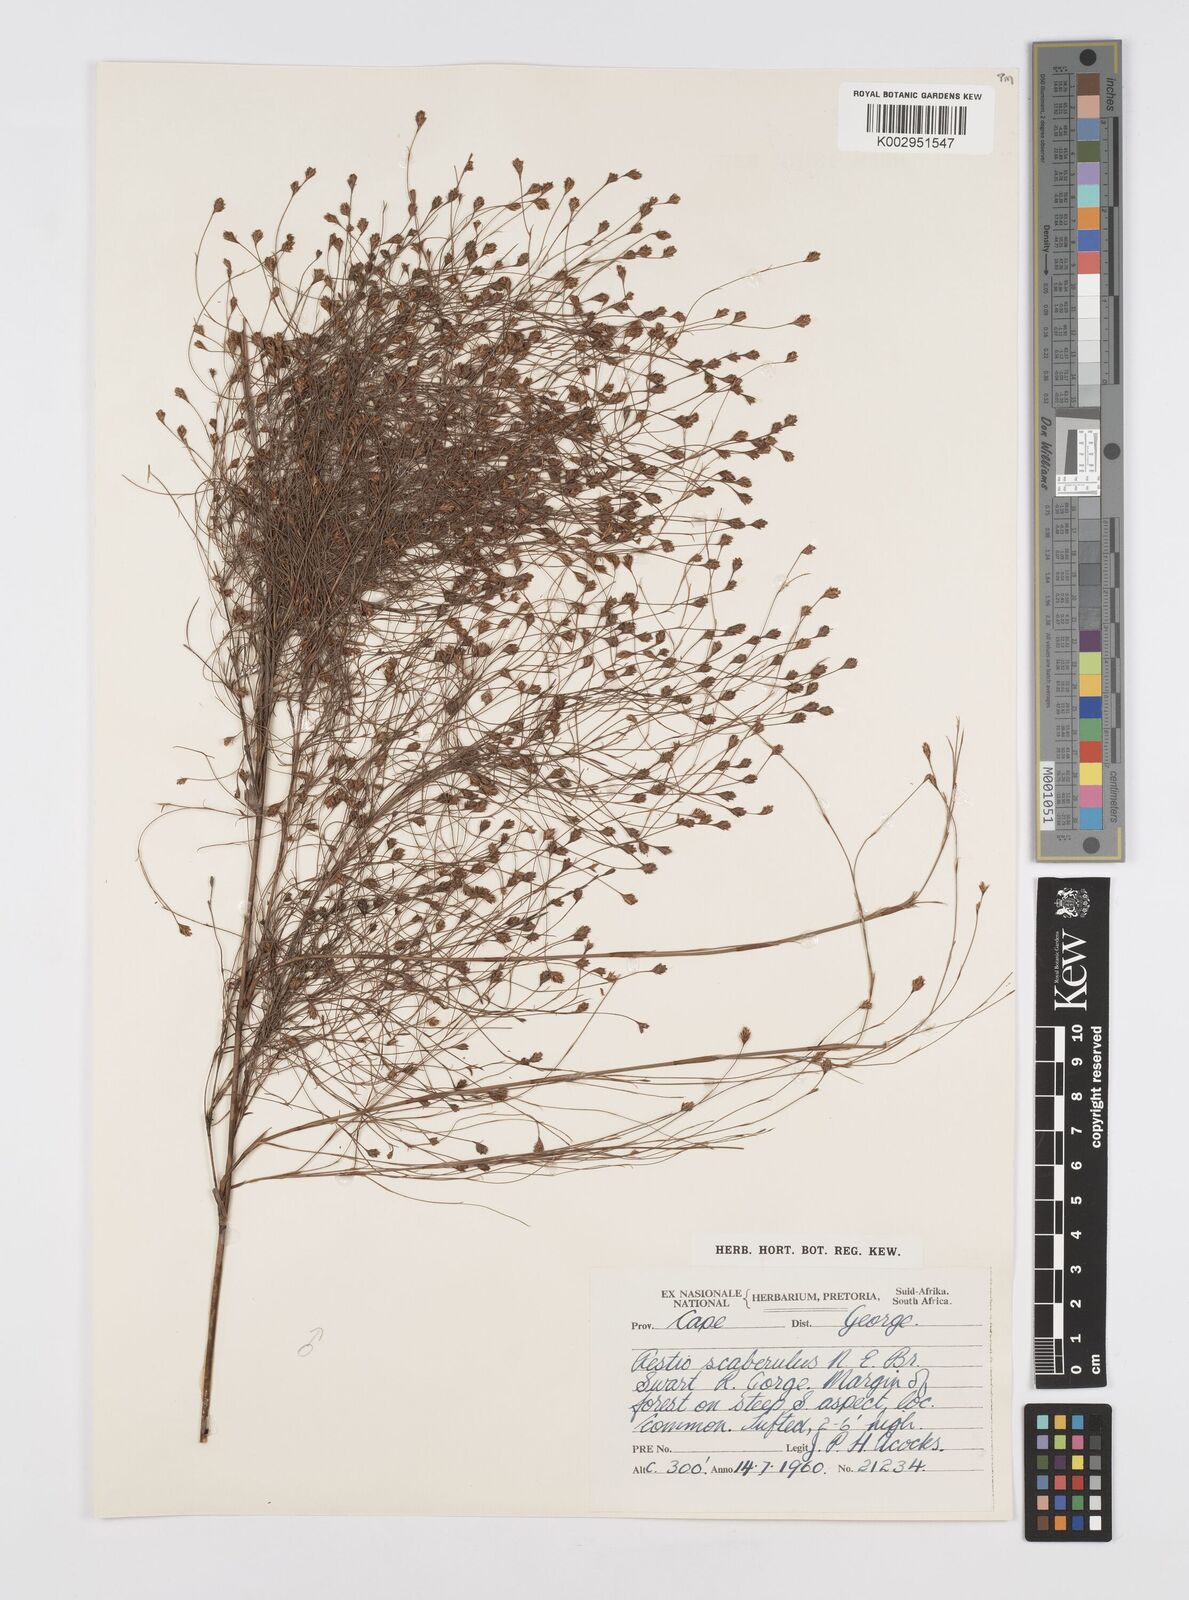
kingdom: Plantae
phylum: Tracheophyta
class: Liliopsida
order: Poales
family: Restionaceae
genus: Restio
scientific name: Restio scaberulus
